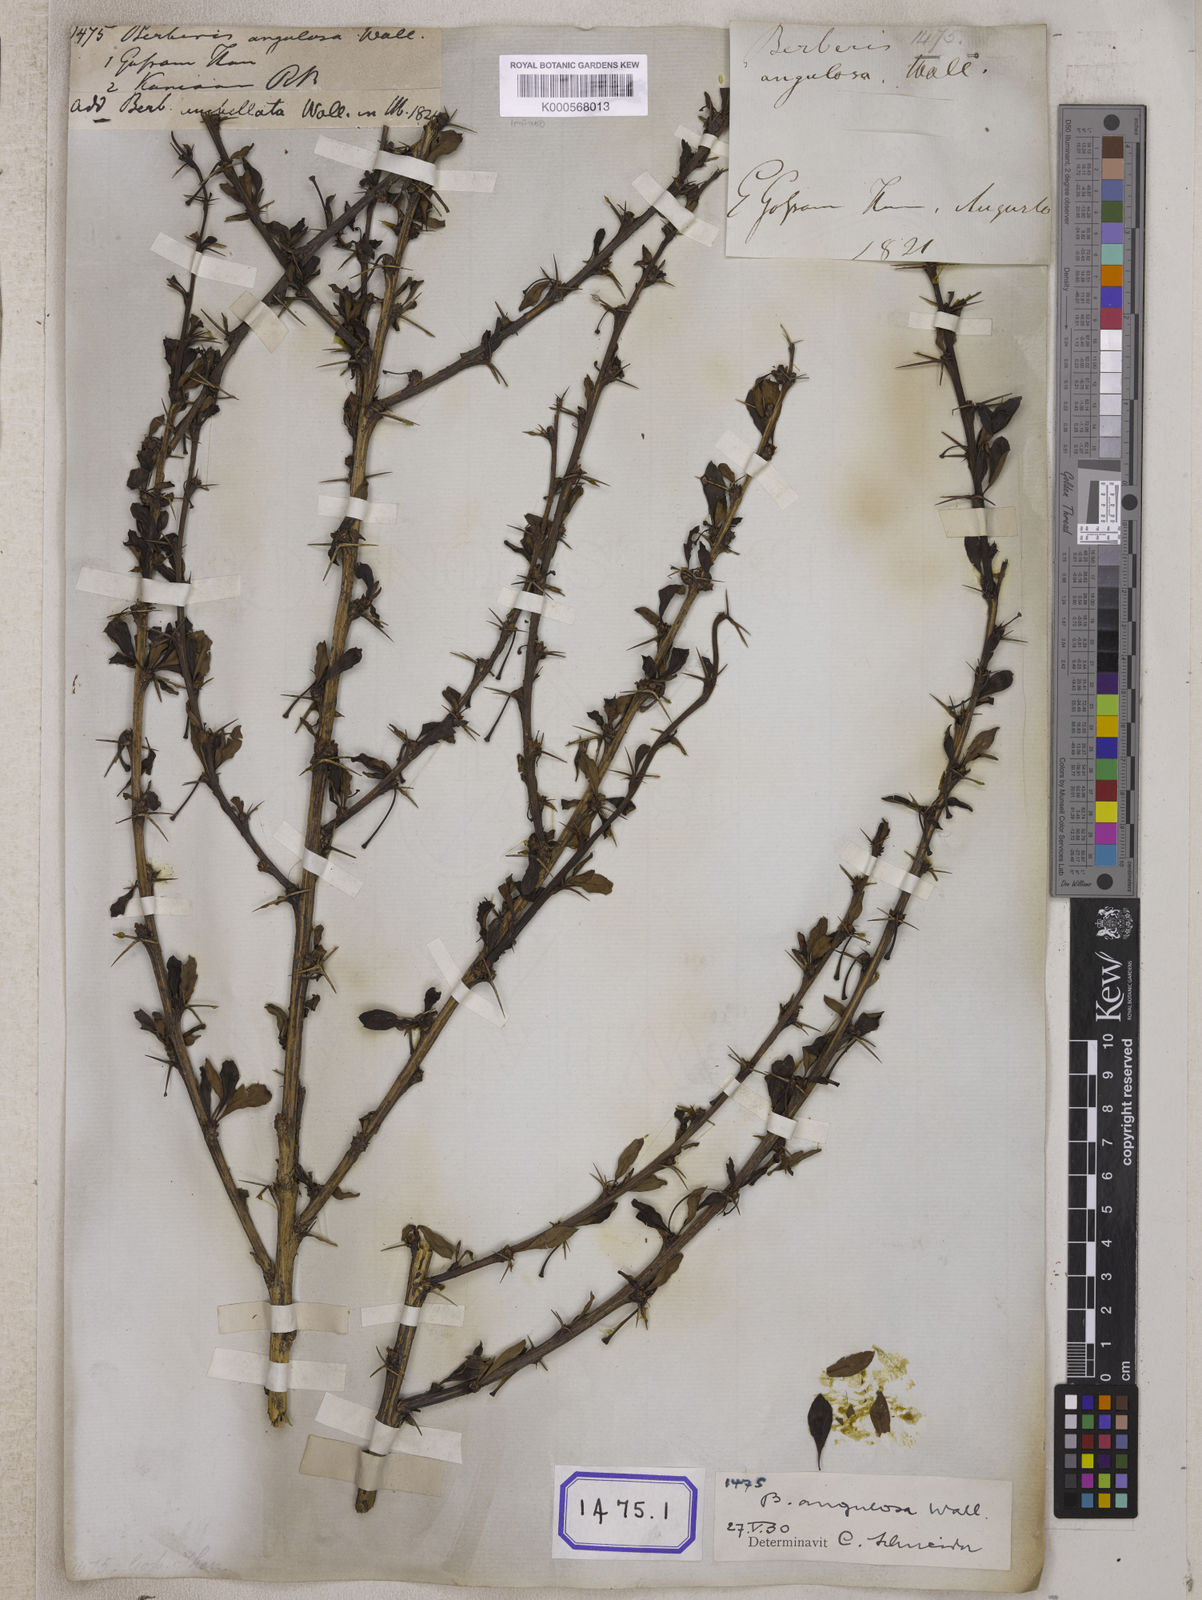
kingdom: Plantae
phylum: Tracheophyta
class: Magnoliopsida
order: Ranunculales
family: Berberidaceae
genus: Berberis
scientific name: Berberis
